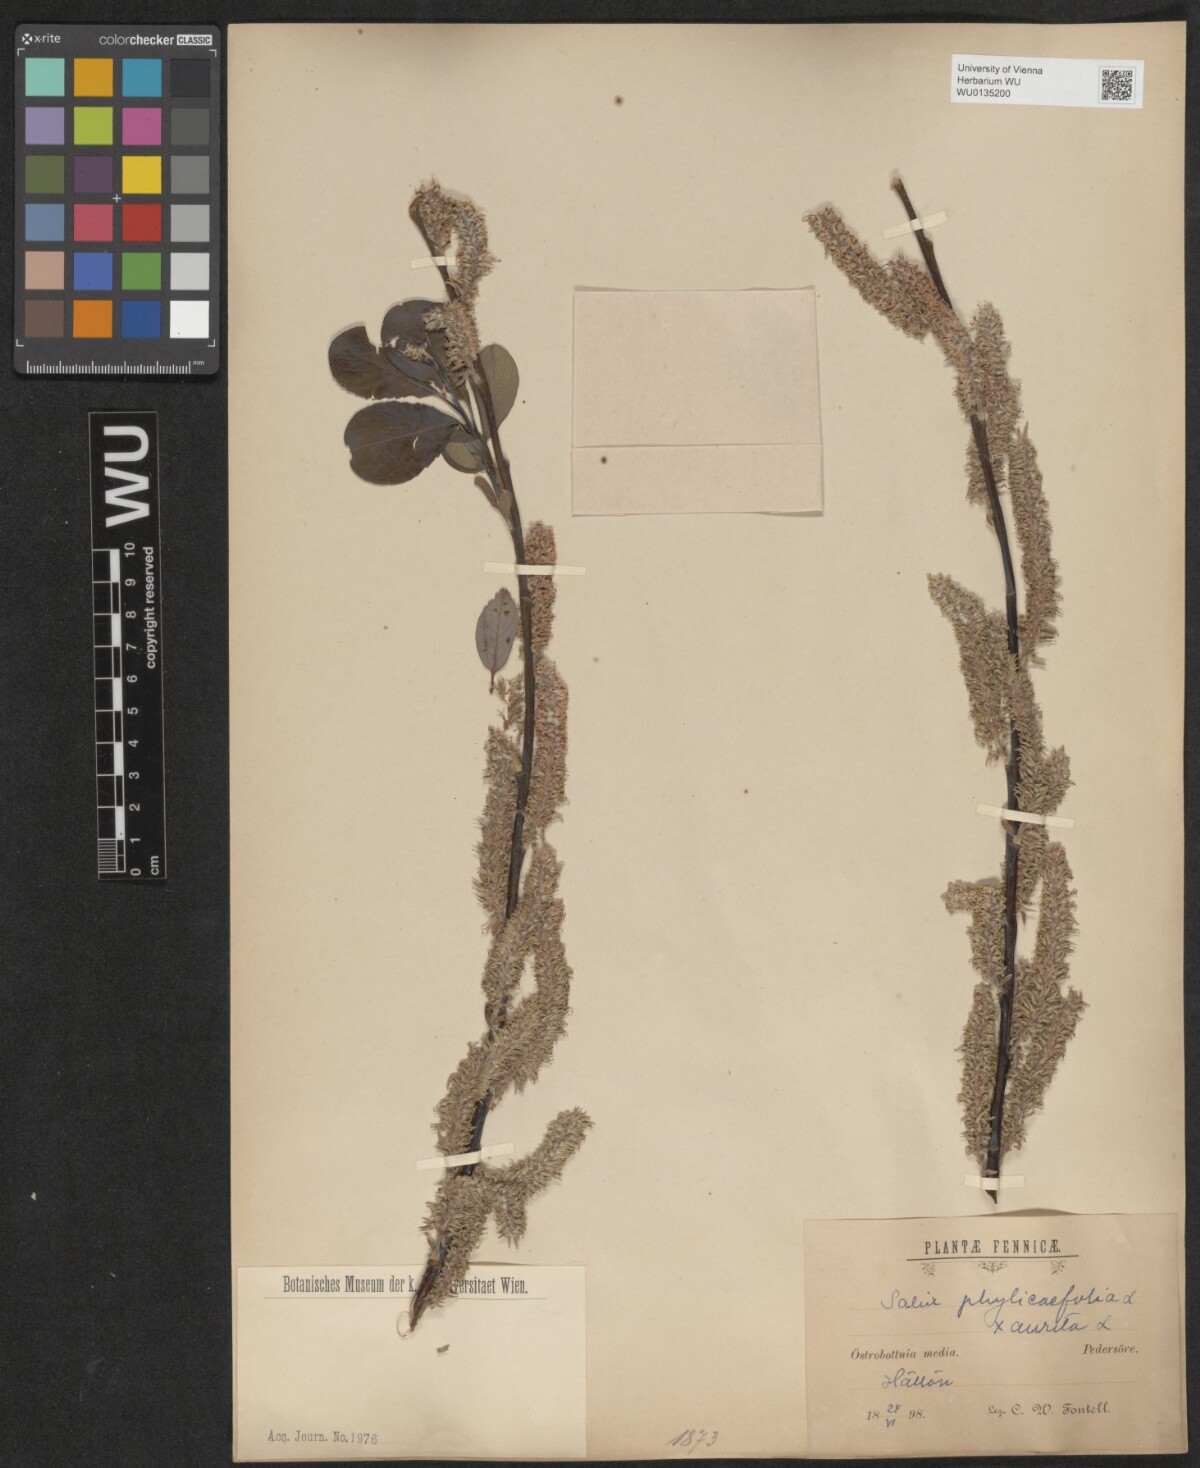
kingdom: Plantae
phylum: Tracheophyta
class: Magnoliopsida
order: Malpighiales
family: Salicaceae
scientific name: Salicaceae
